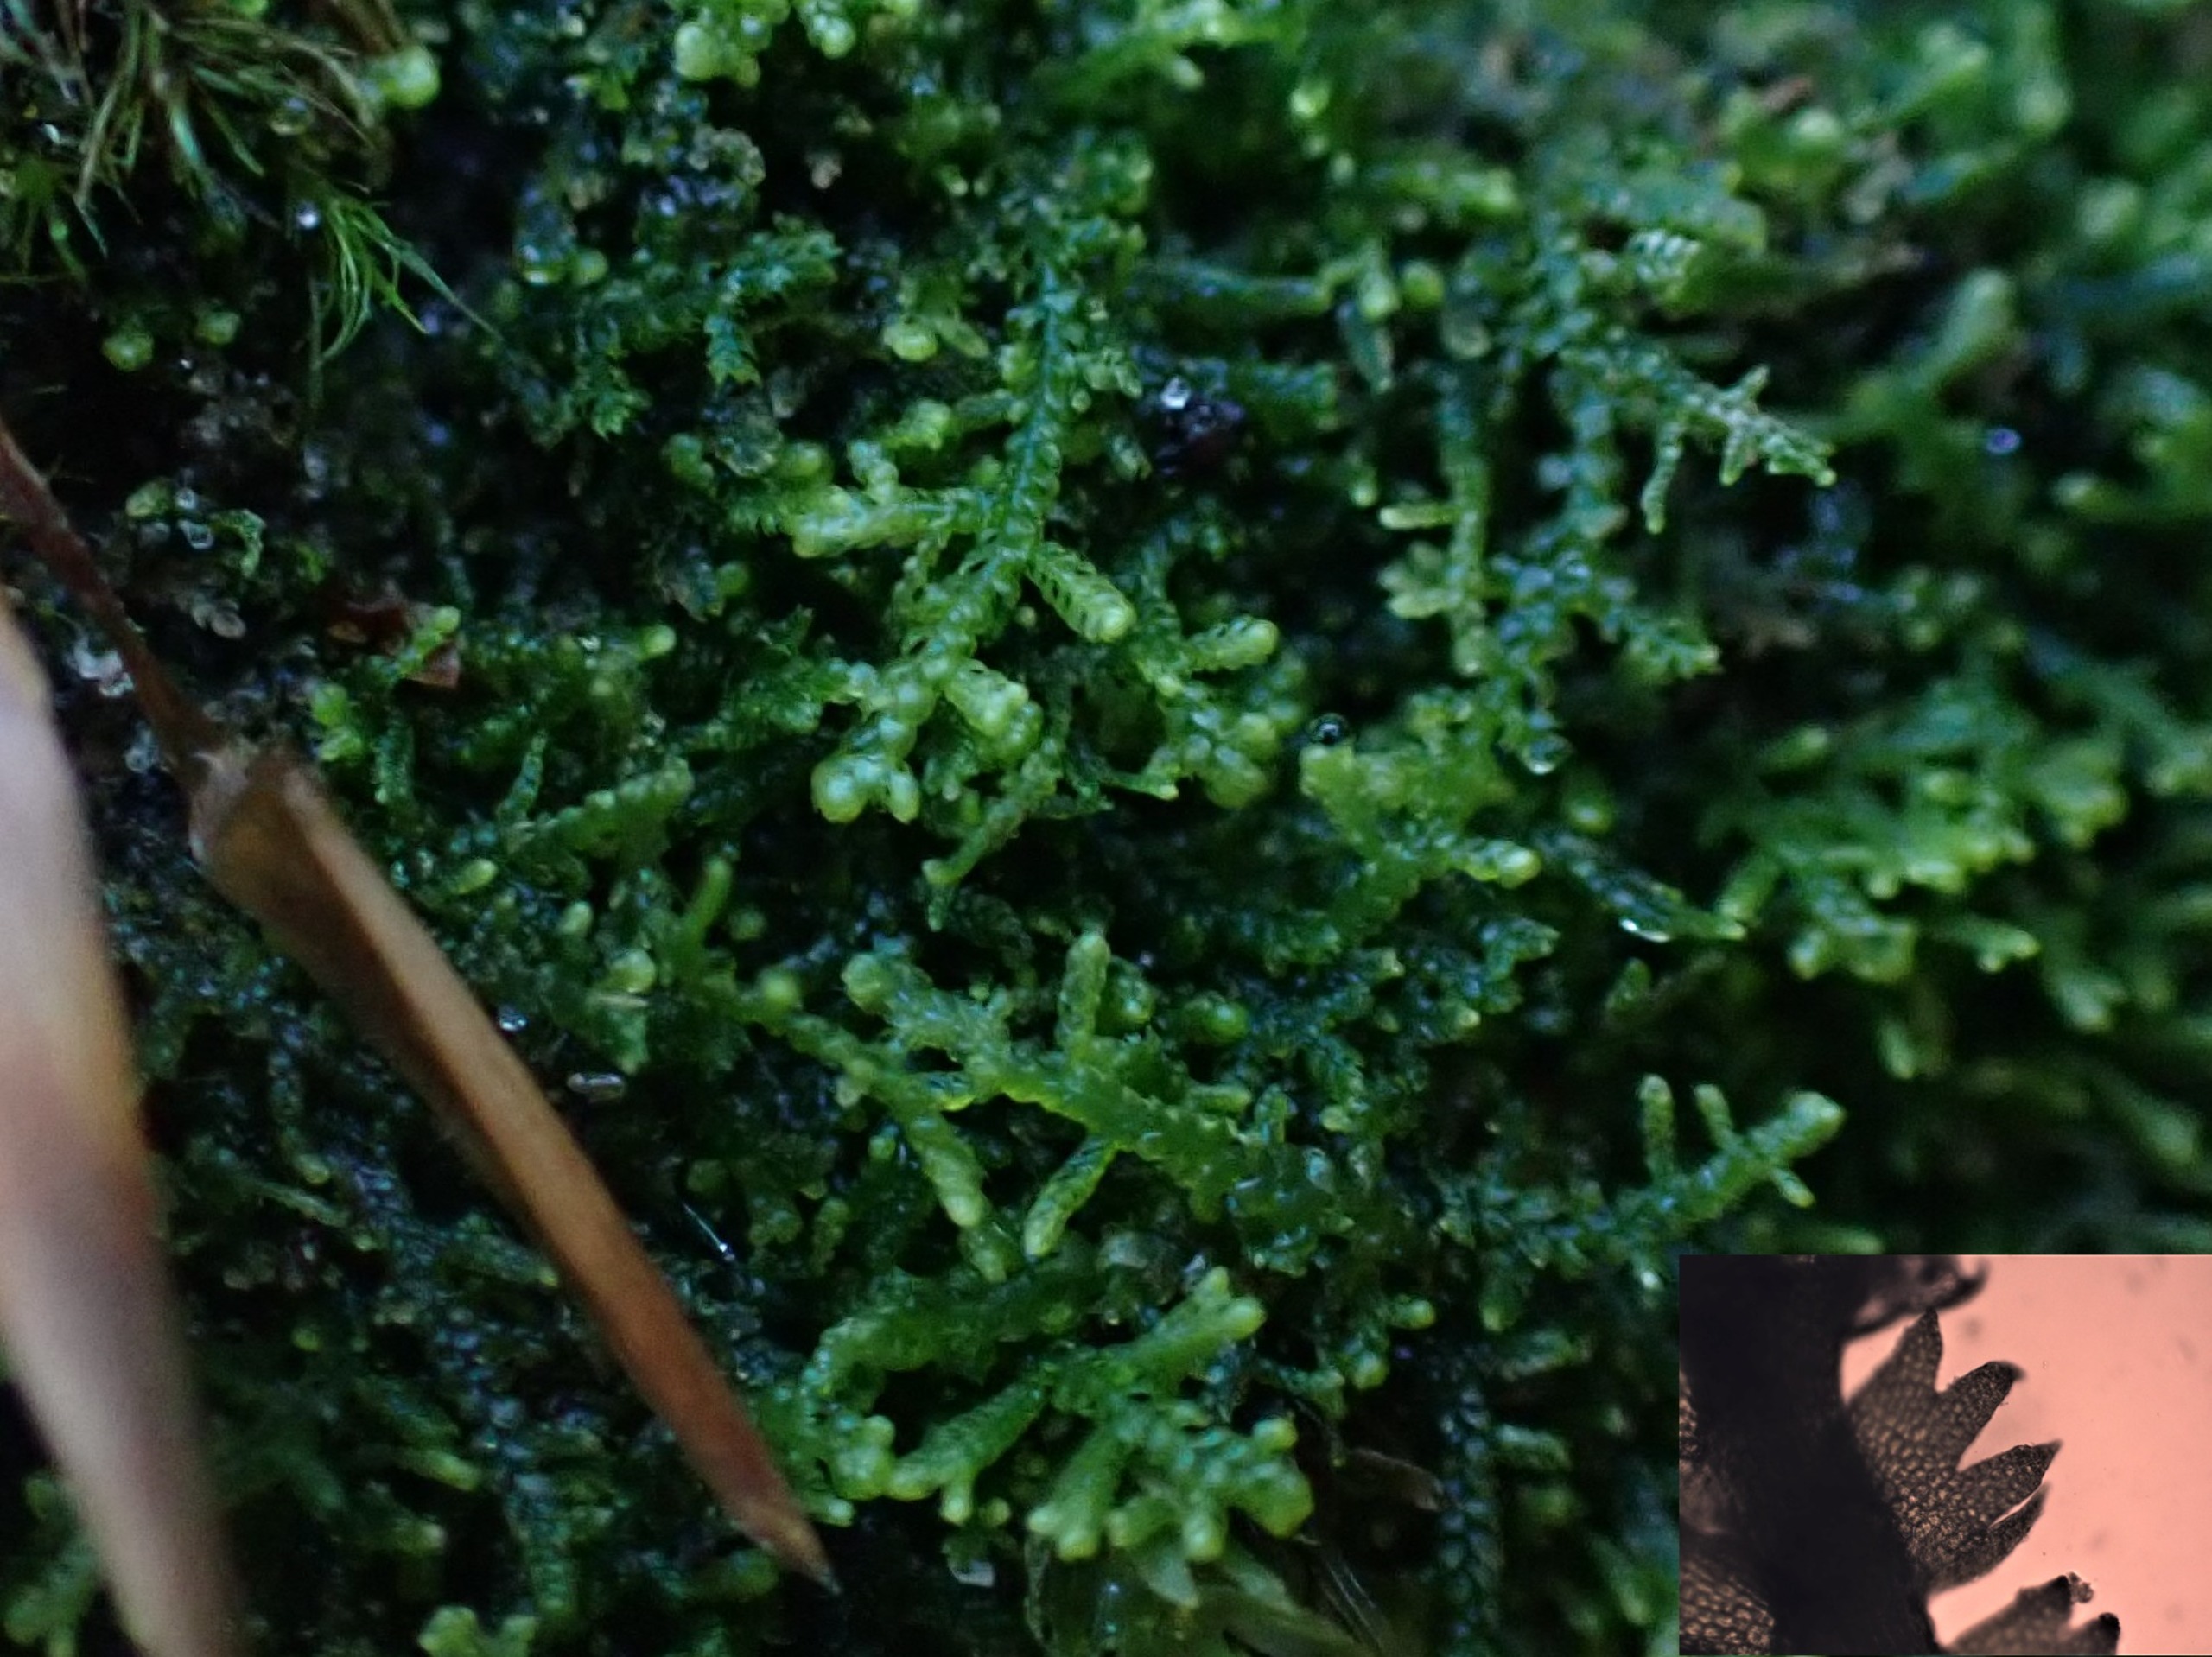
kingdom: Plantae
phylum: Marchantiophyta
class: Jungermanniopsida
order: Jungermanniales
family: Lepidoziaceae
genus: Lepidozia
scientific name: Lepidozia reptans
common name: Krybende fingermos
